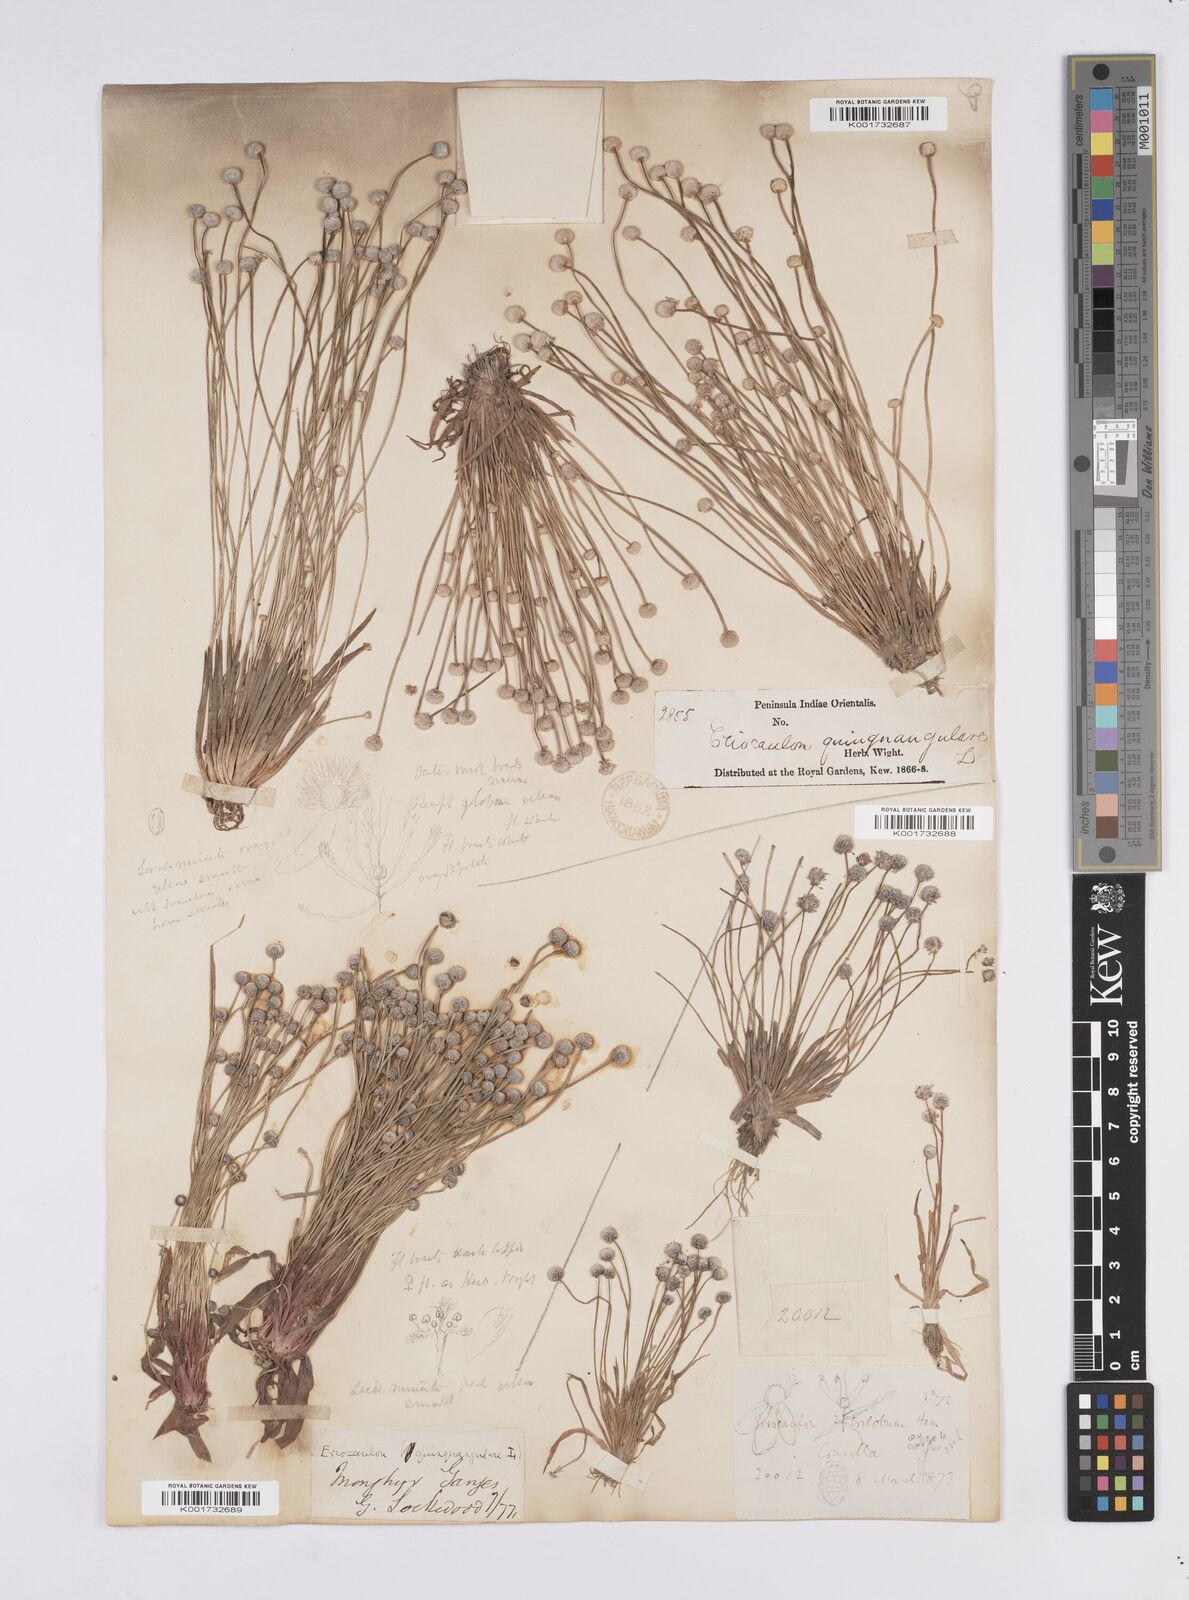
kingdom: Plantae
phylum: Tracheophyta
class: Liliopsida
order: Poales
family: Eriocaulaceae
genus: Eriocaulon
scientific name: Eriocaulon quinquangulare
